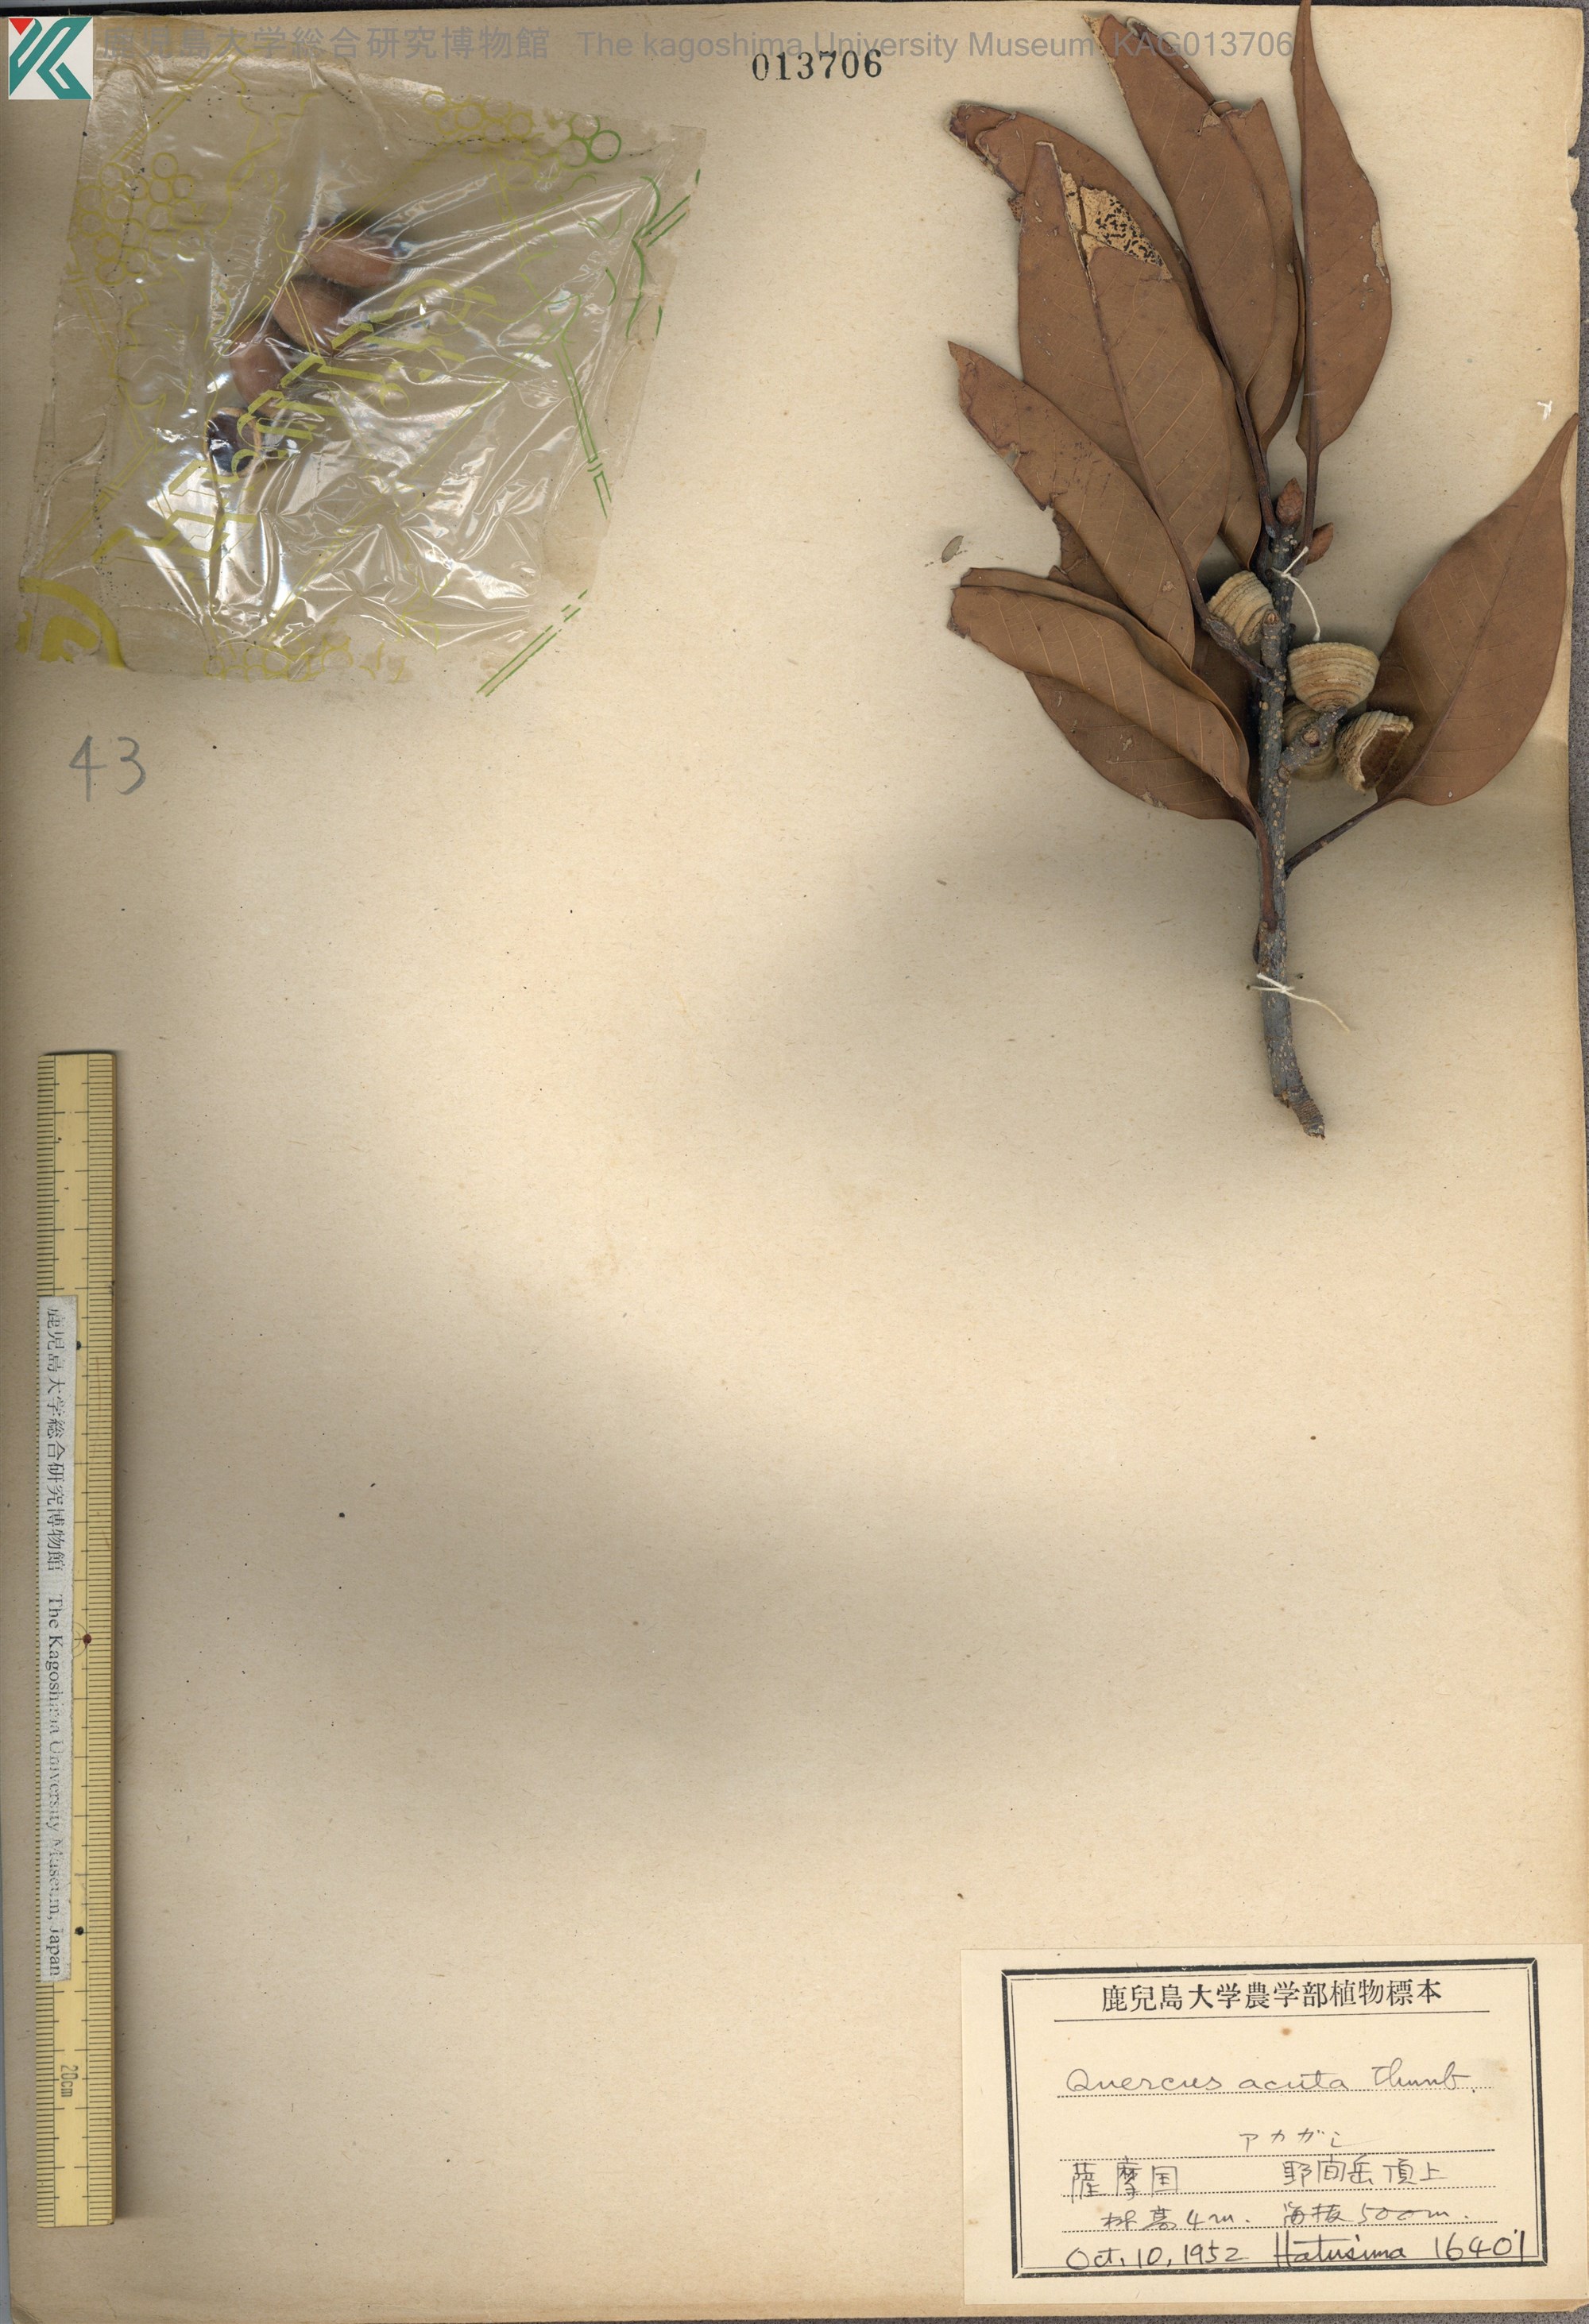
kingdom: Plantae
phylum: Tracheophyta
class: Magnoliopsida
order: Fagales
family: Fagaceae
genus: Quercus
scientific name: Quercus acuta
